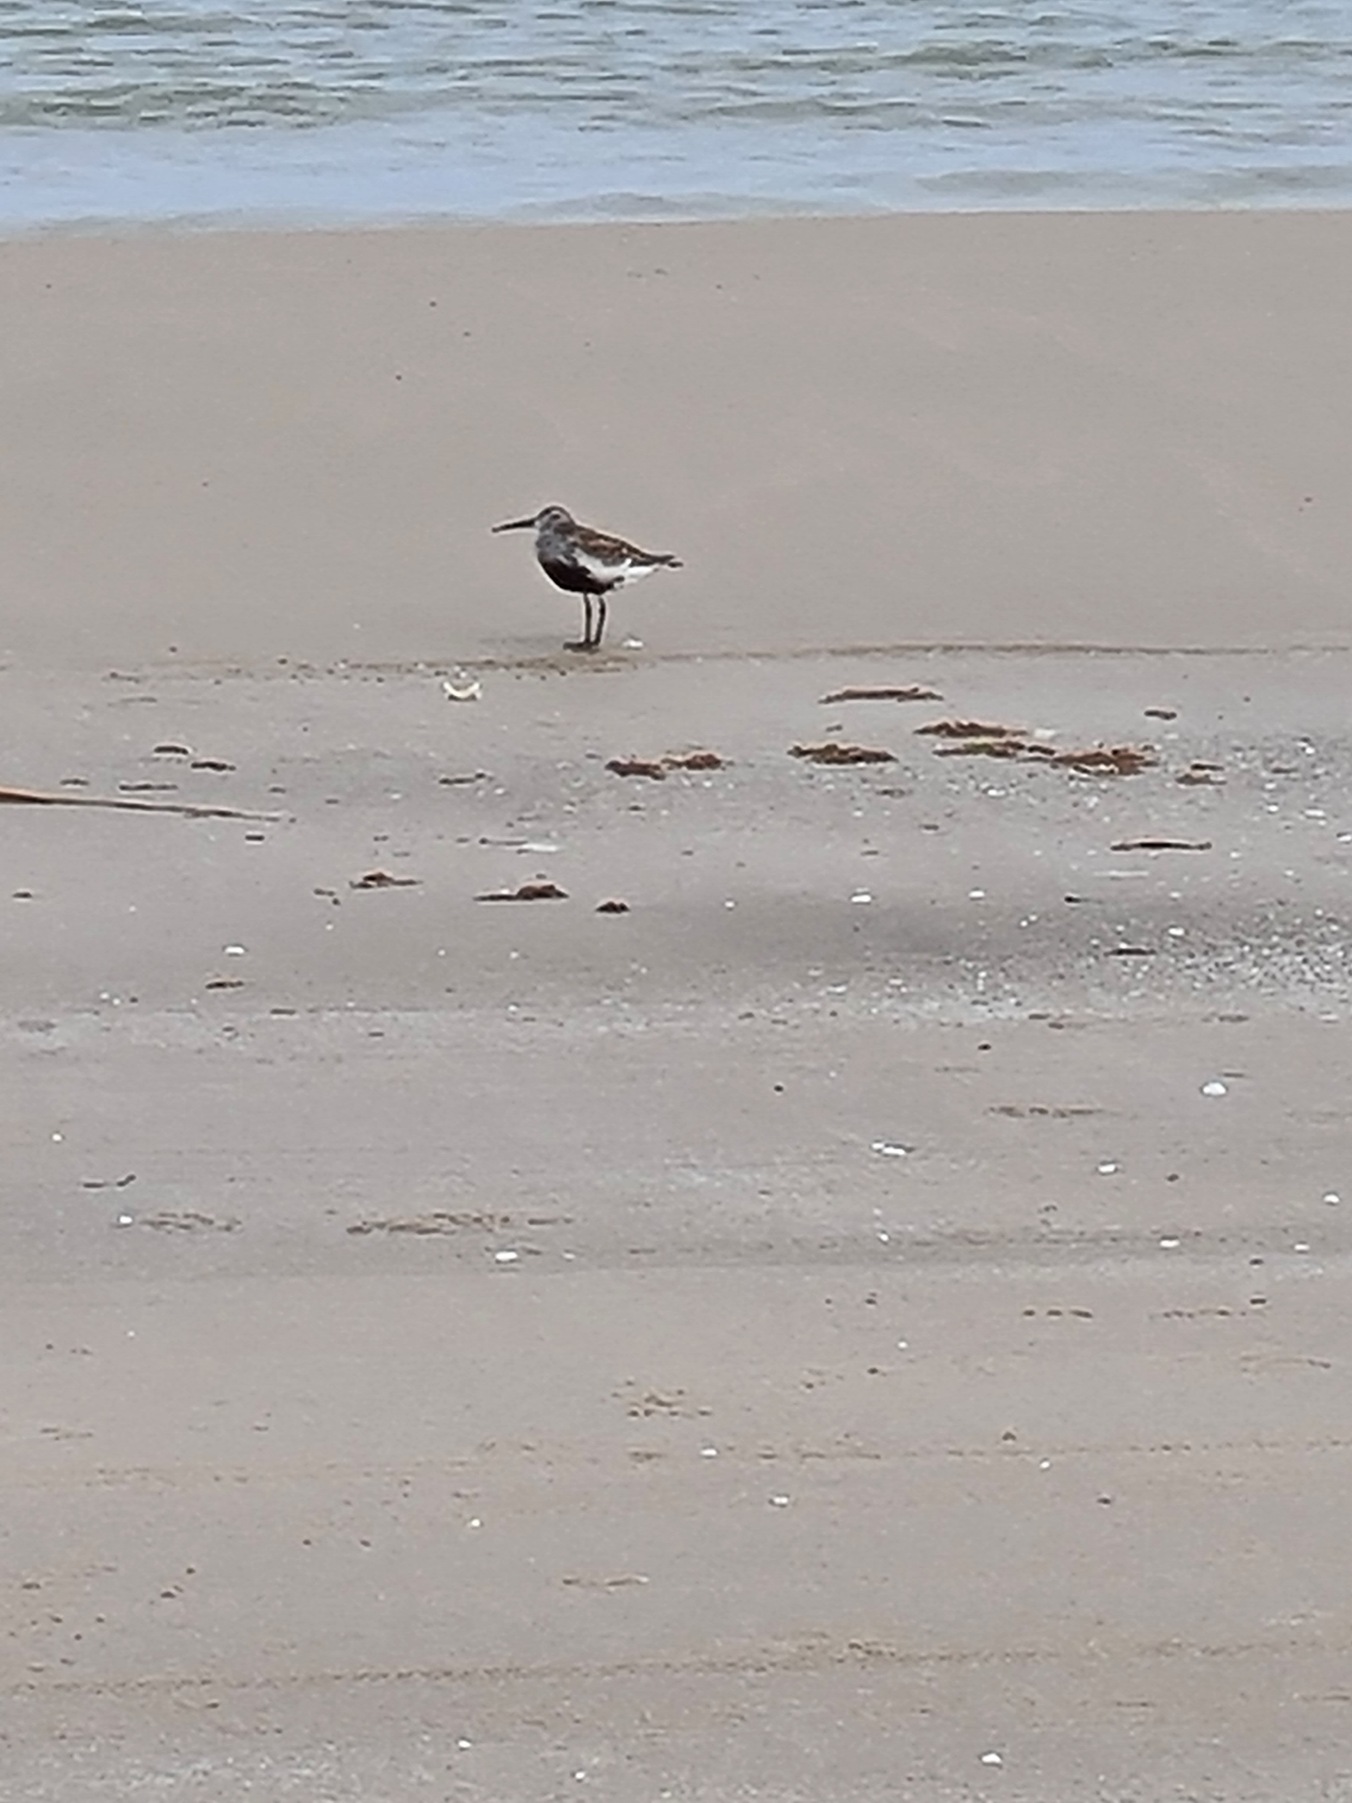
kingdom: Animalia
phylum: Chordata
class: Aves
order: Charadriiformes
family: Scolopacidae
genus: Calidris
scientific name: Calidris alpina
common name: Almindelig ryle
